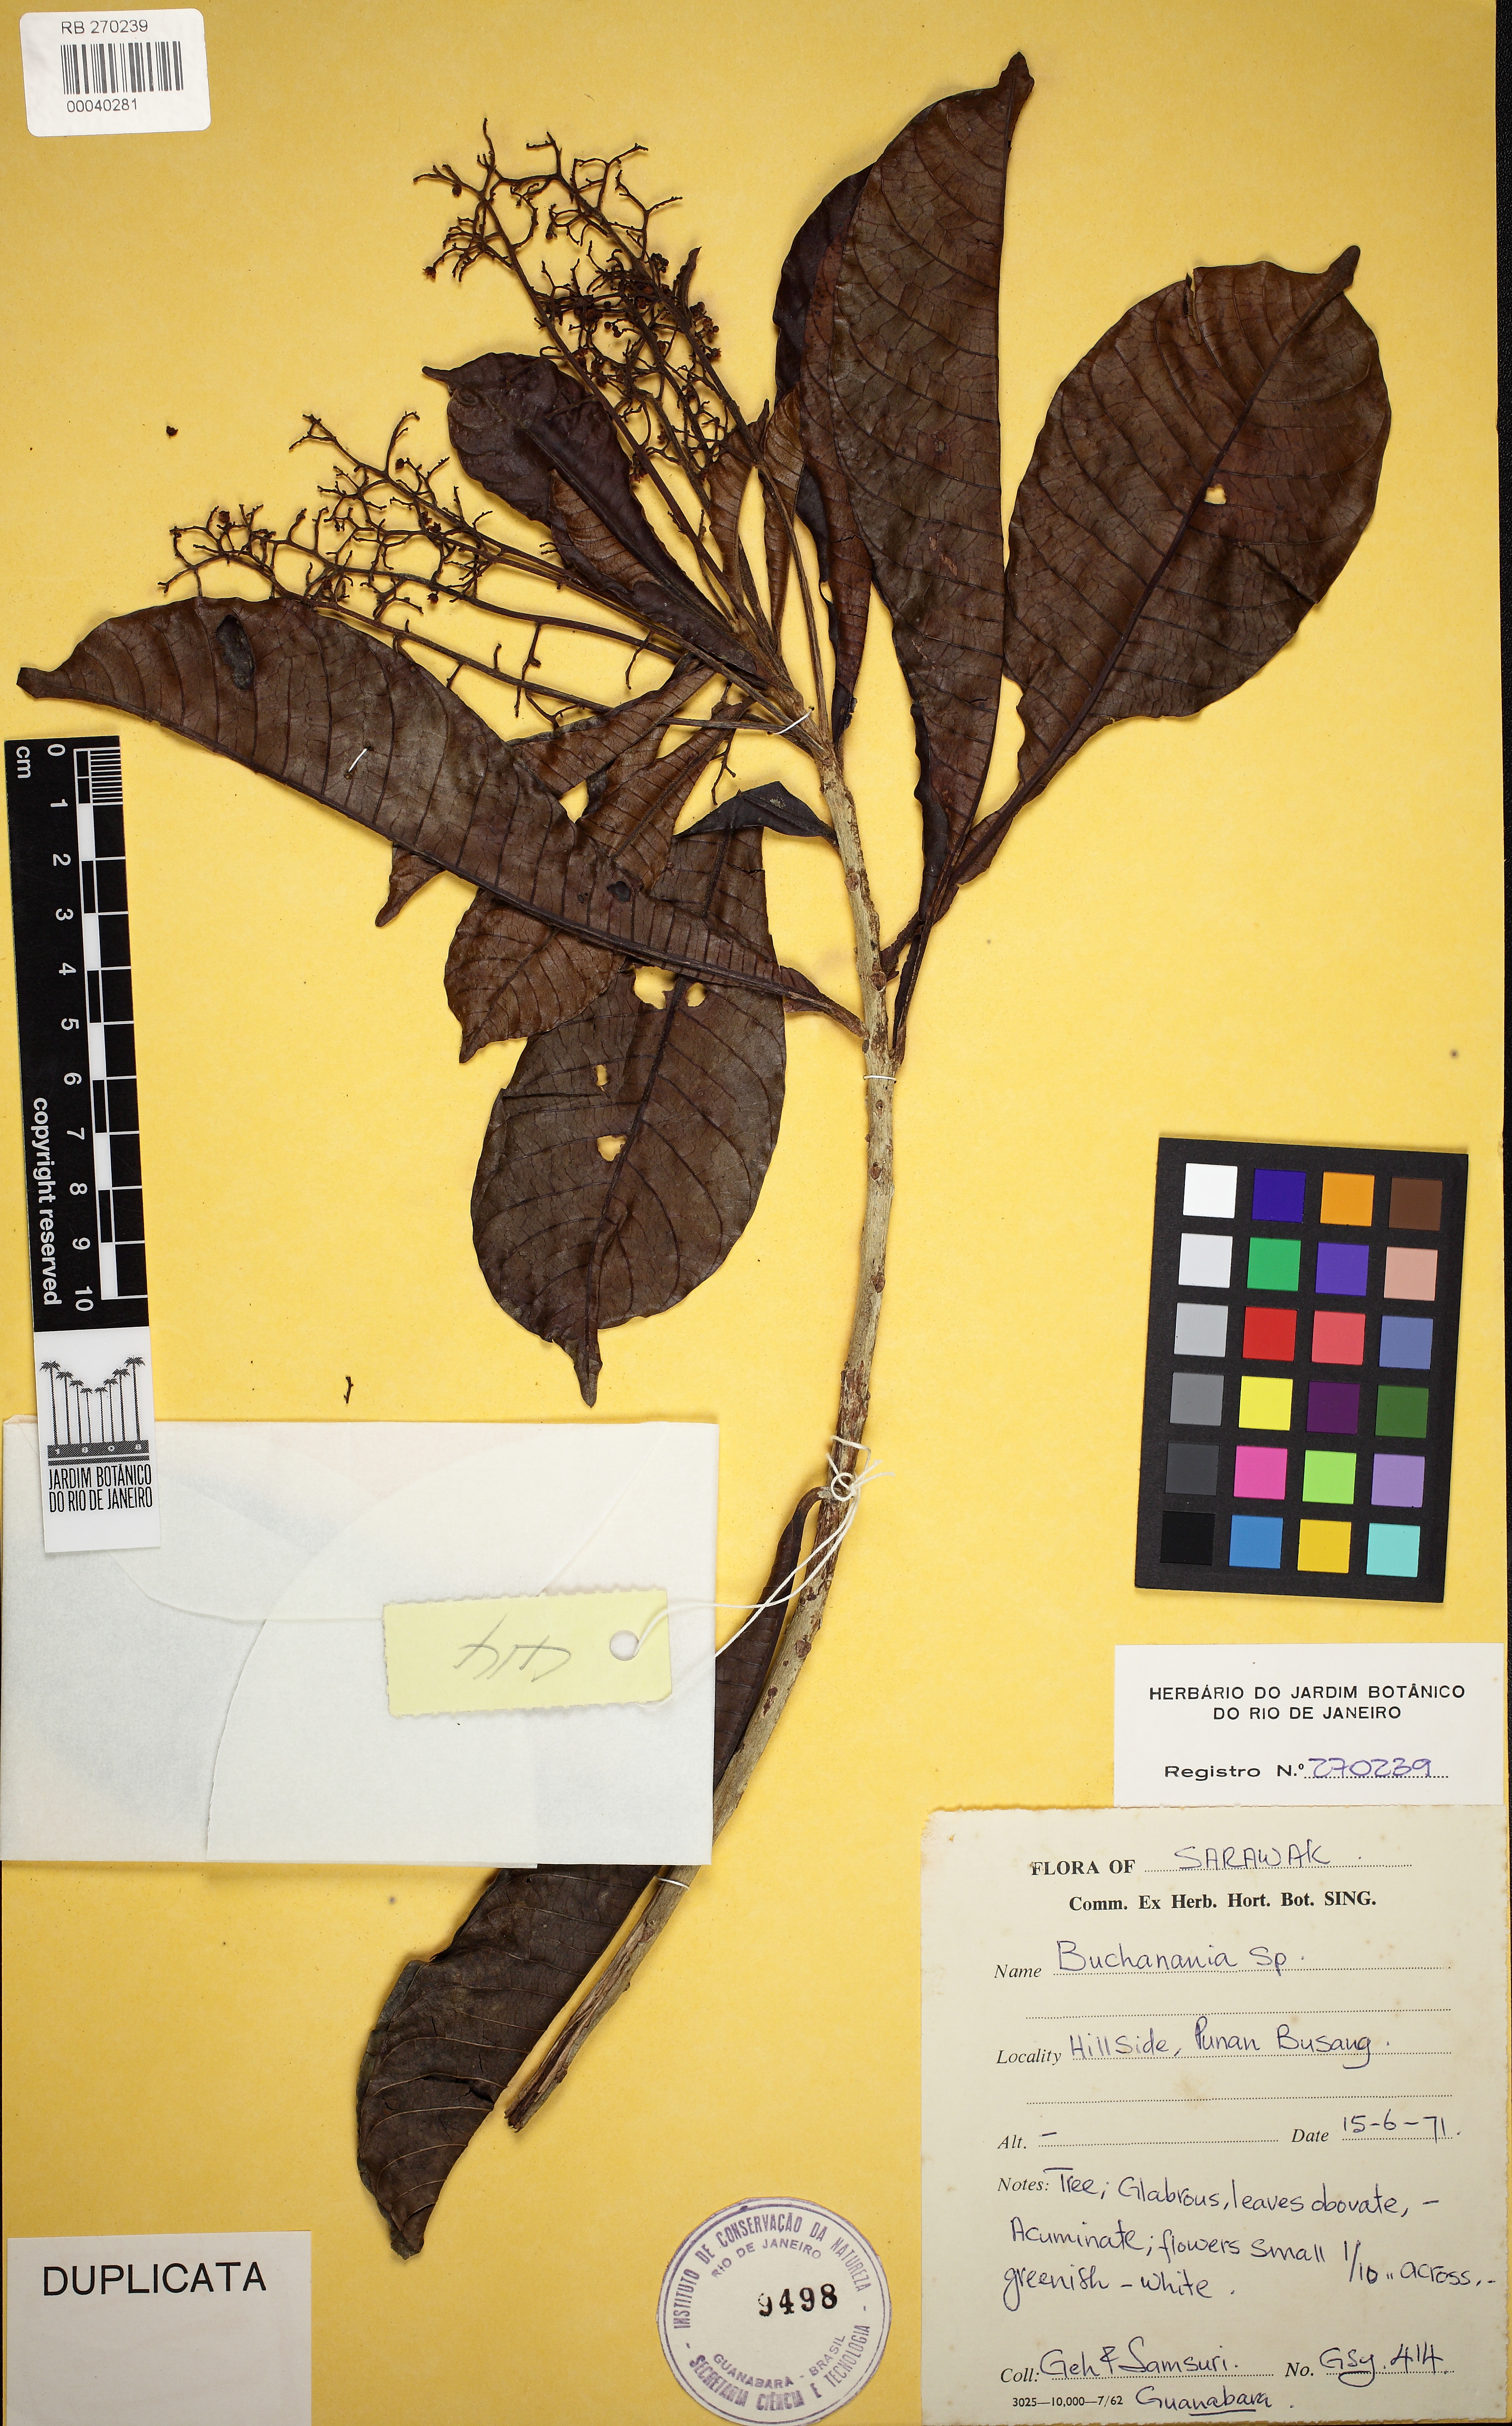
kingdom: Plantae
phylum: Tracheophyta
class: Magnoliopsida
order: Sapindales
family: Anacardiaceae
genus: Buchanania
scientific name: Buchanania
